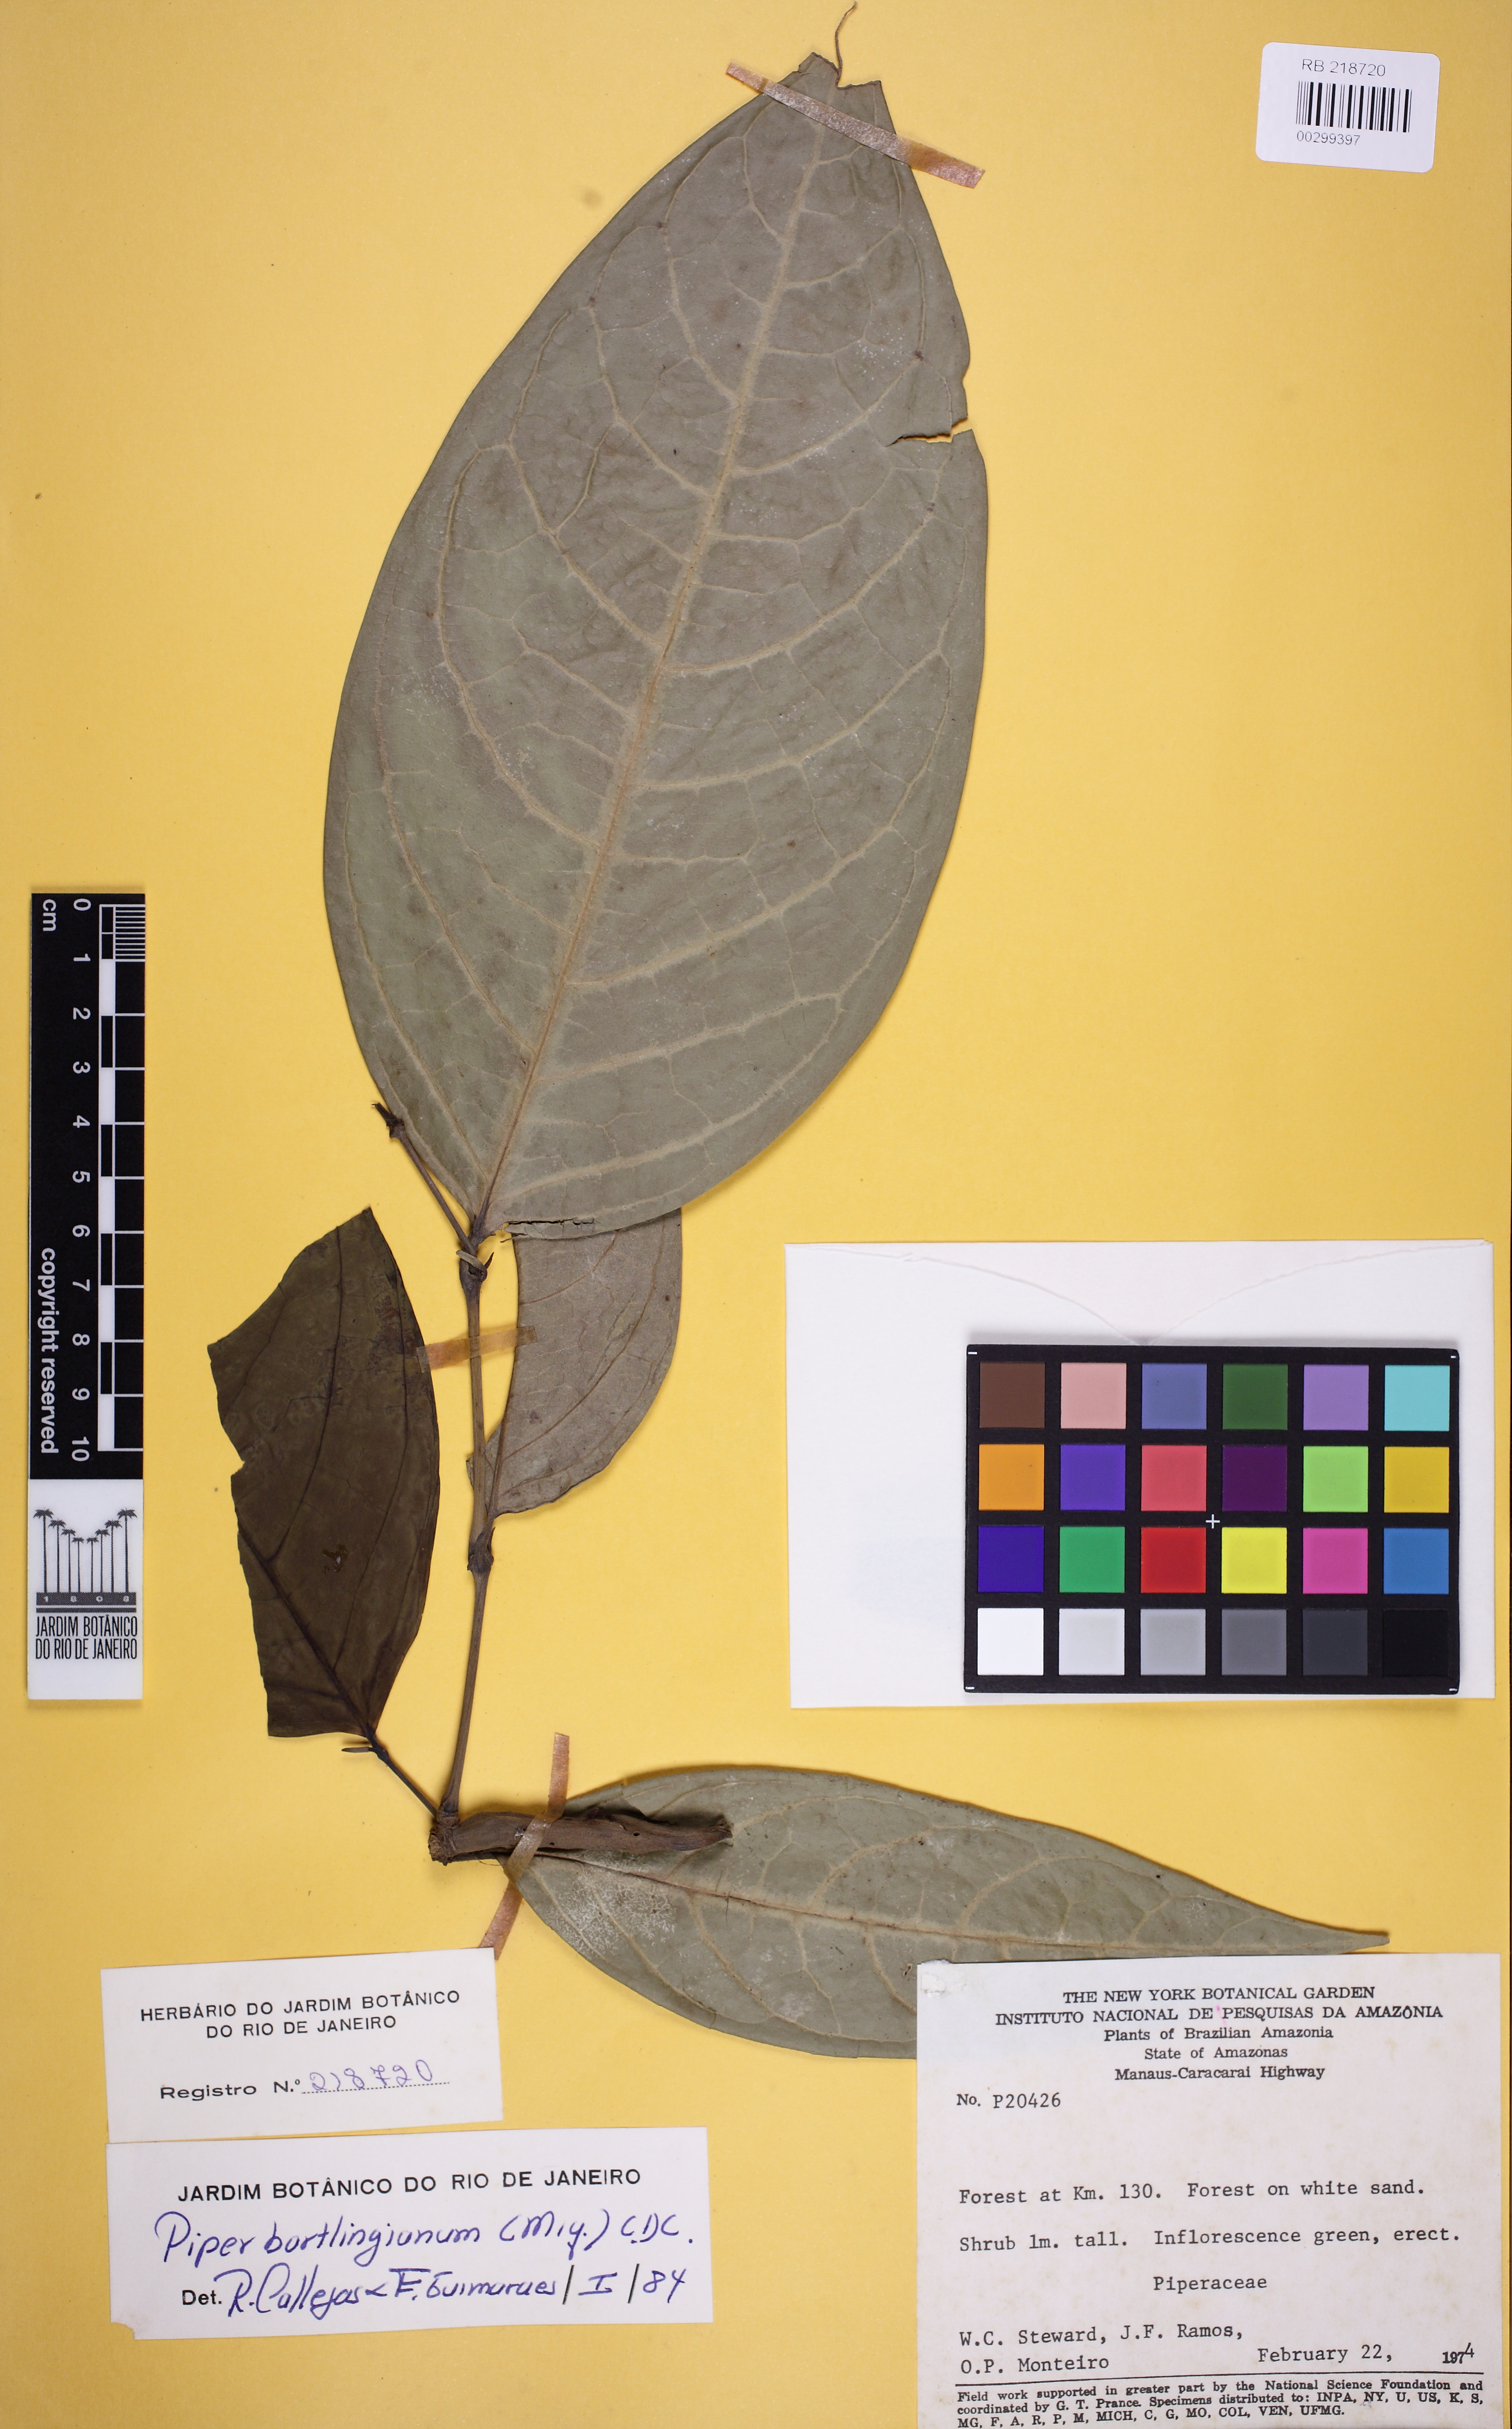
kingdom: Plantae
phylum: Tracheophyta
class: Magnoliopsida
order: Piperales
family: Piperaceae
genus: Piper
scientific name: Piper bartlingianum
